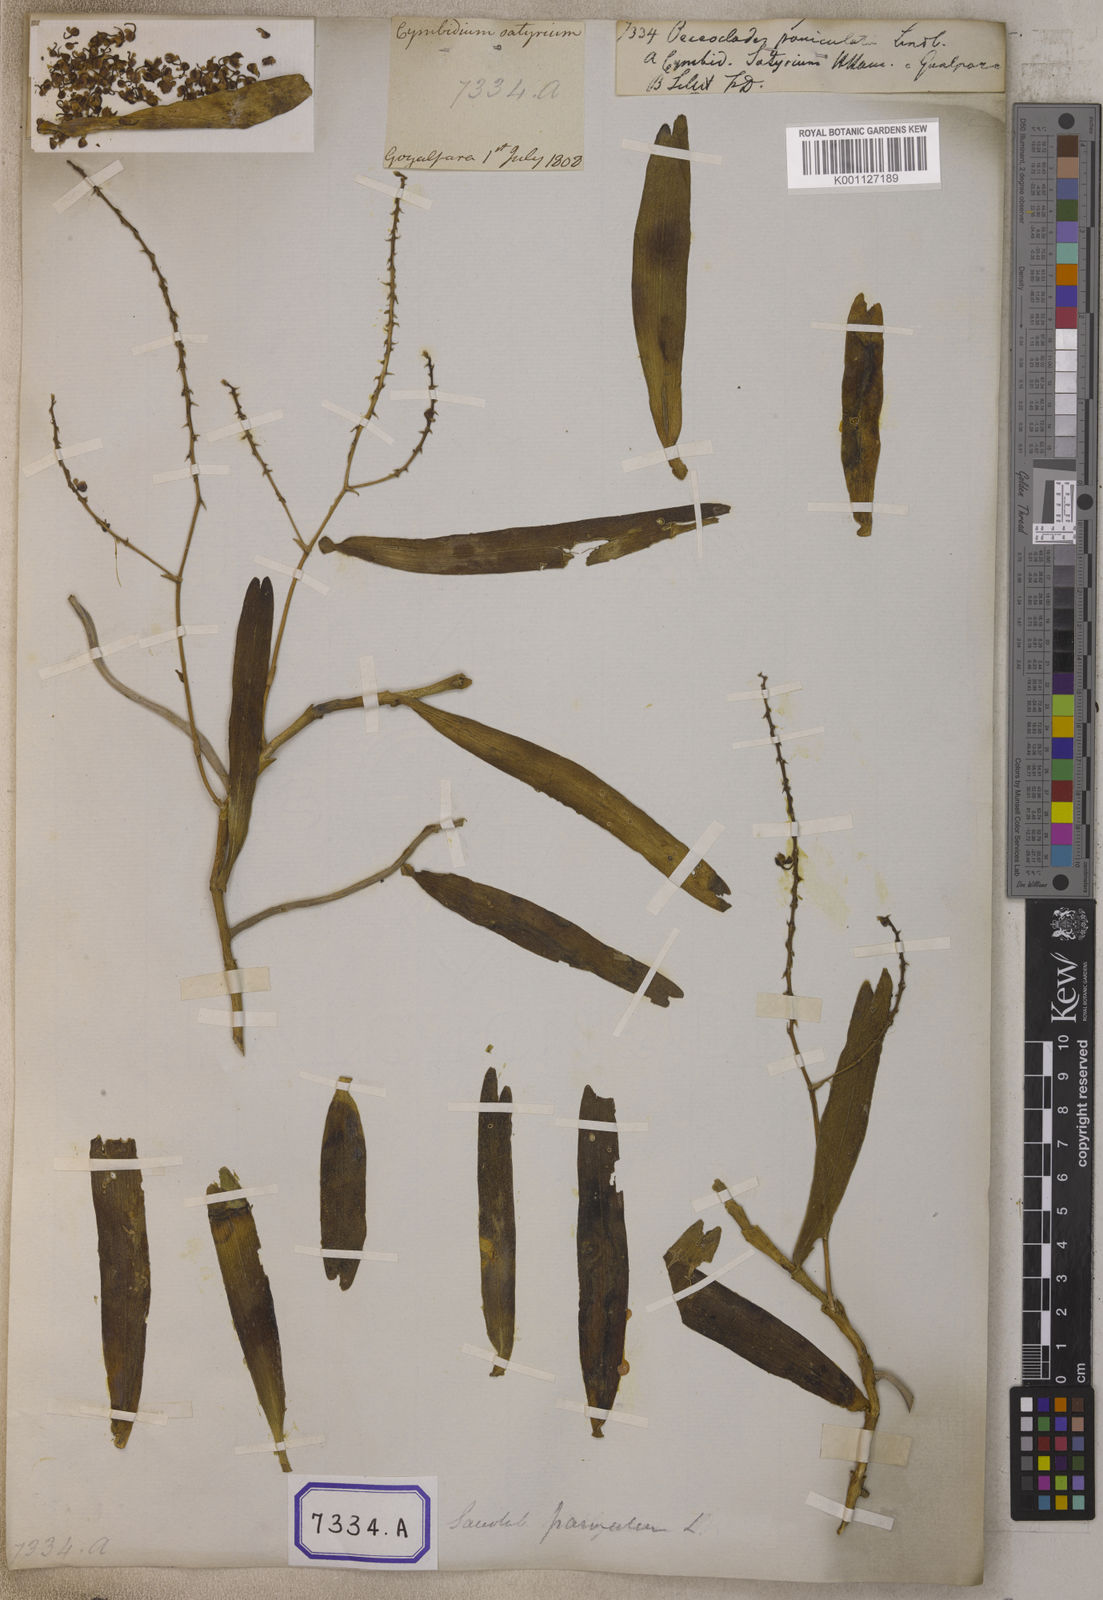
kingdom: Plantae
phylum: Tracheophyta
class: Liliopsida
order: Asparagales
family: Orchidaceae
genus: Robiquetia
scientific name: Robiquetia succisa
